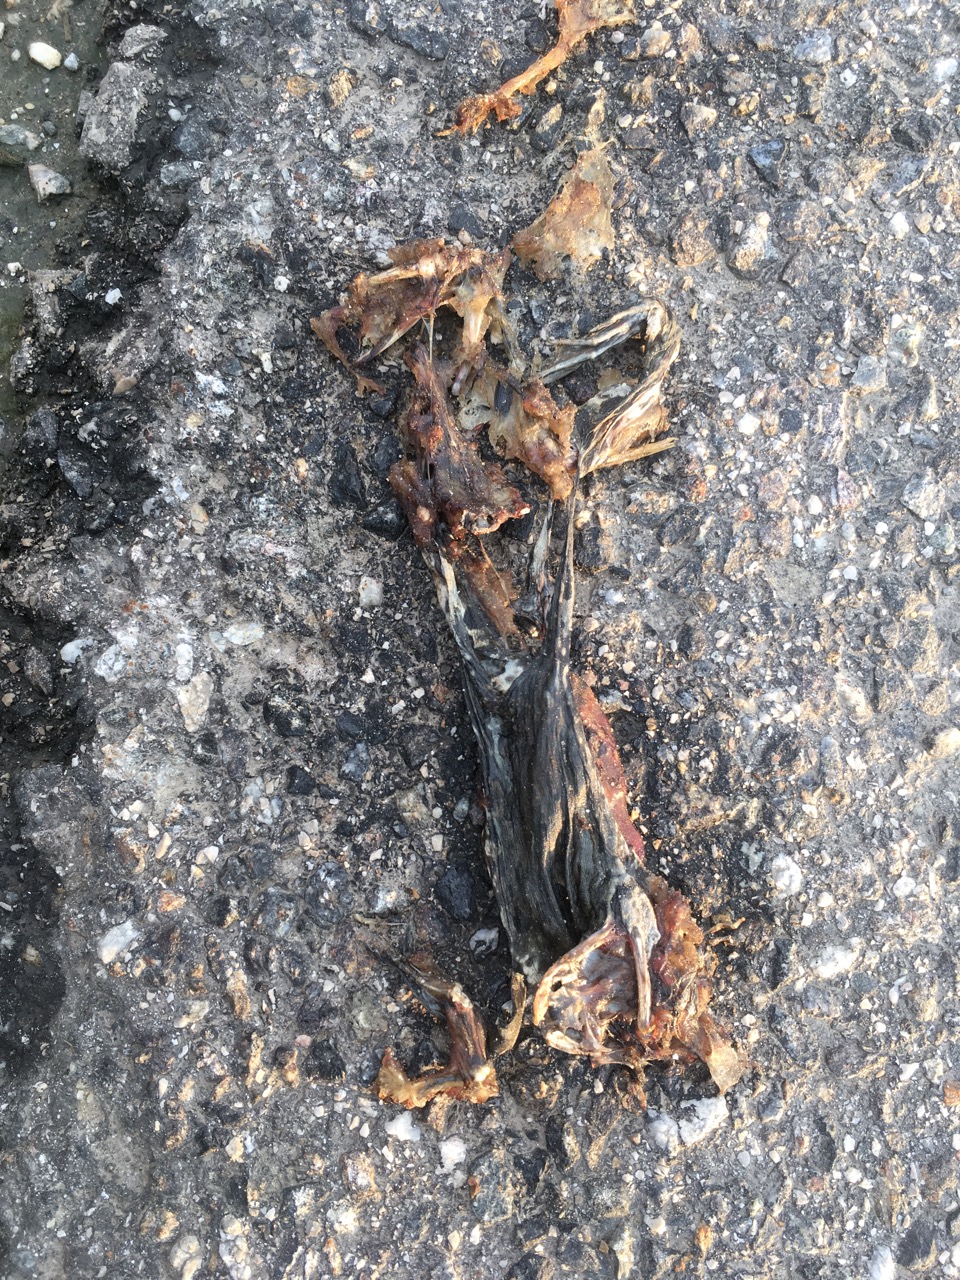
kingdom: Animalia
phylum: Chordata
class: Amphibia
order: Anura
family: Bufonidae
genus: Bufotes
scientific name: Bufotes viridis
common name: European green toad
